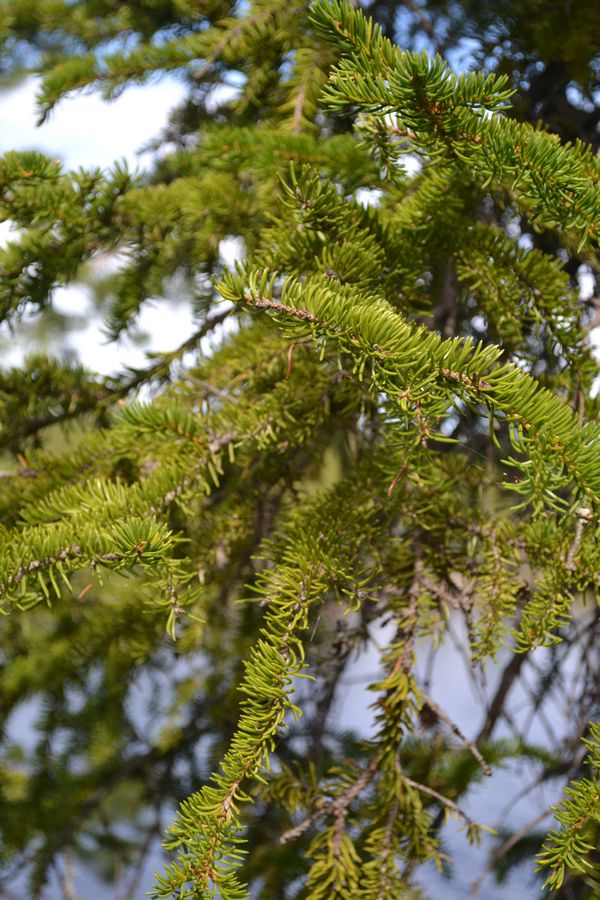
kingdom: Plantae
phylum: Tracheophyta
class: Pinopsida
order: Pinales
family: Pinaceae
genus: Picea
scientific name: Picea
